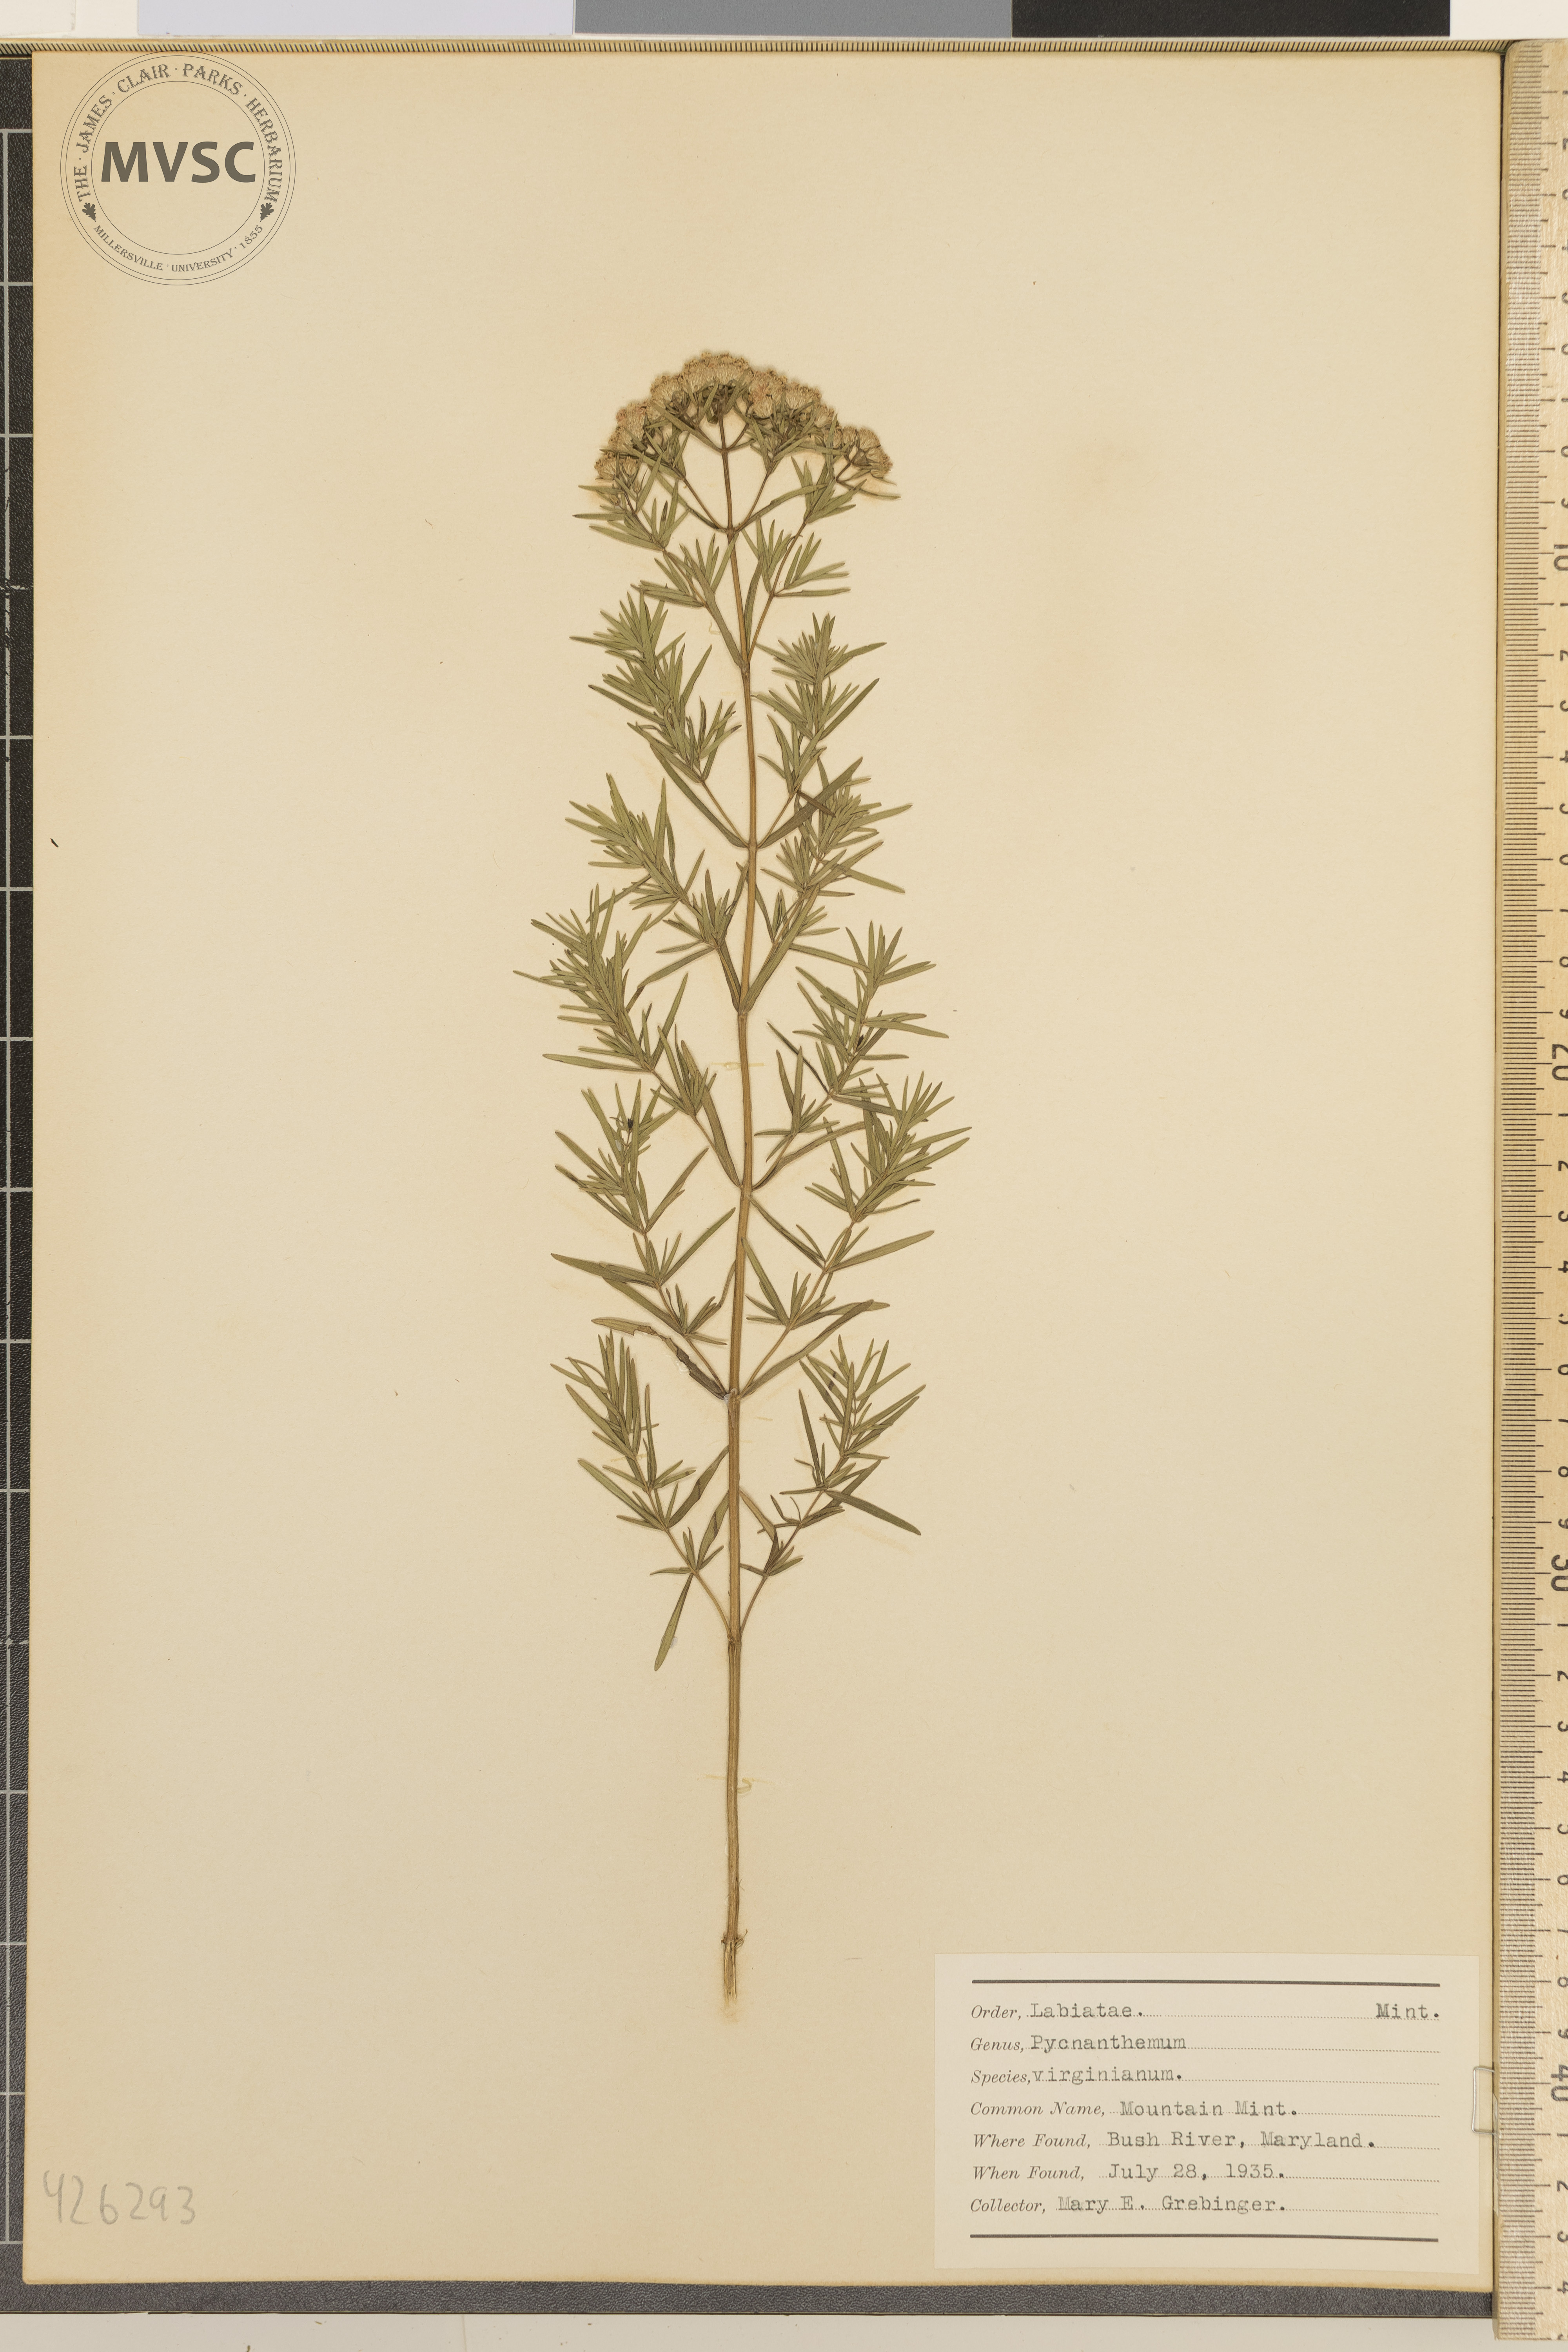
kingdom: Plantae
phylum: Tracheophyta
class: Magnoliopsida
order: Lamiales
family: Lamiaceae
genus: Pycnanthemum
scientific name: Pycnanthemum virginianum
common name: Mountain mint
